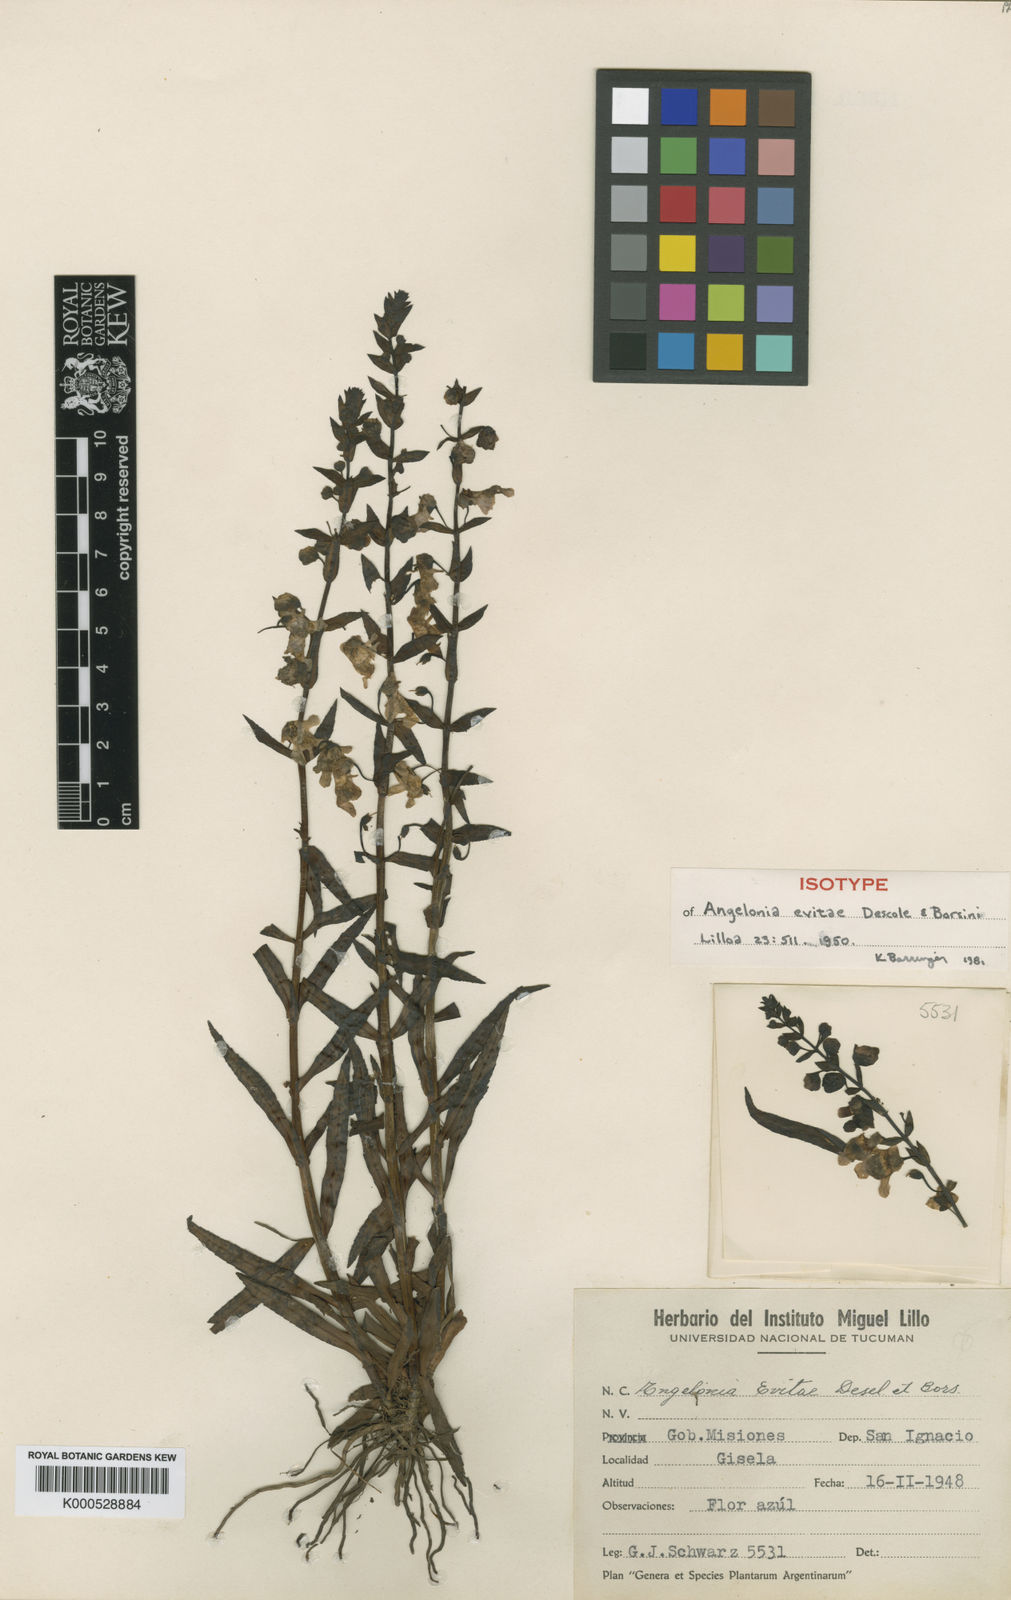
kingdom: Plantae
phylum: Tracheophyta
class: Magnoliopsida
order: Lamiales
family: Plantaginaceae
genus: Angelonia
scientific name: Angelonia salicariifolia
